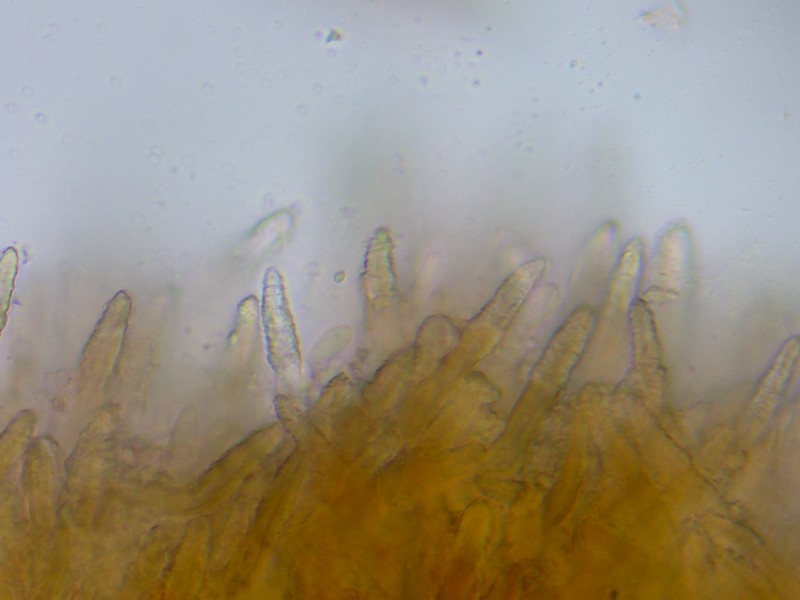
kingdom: Fungi
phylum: Basidiomycota
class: Agaricomycetes
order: Russulales
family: Echinodontiaceae
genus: Amylostereum
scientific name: Amylostereum chailletii
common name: gran-lædersvamp
